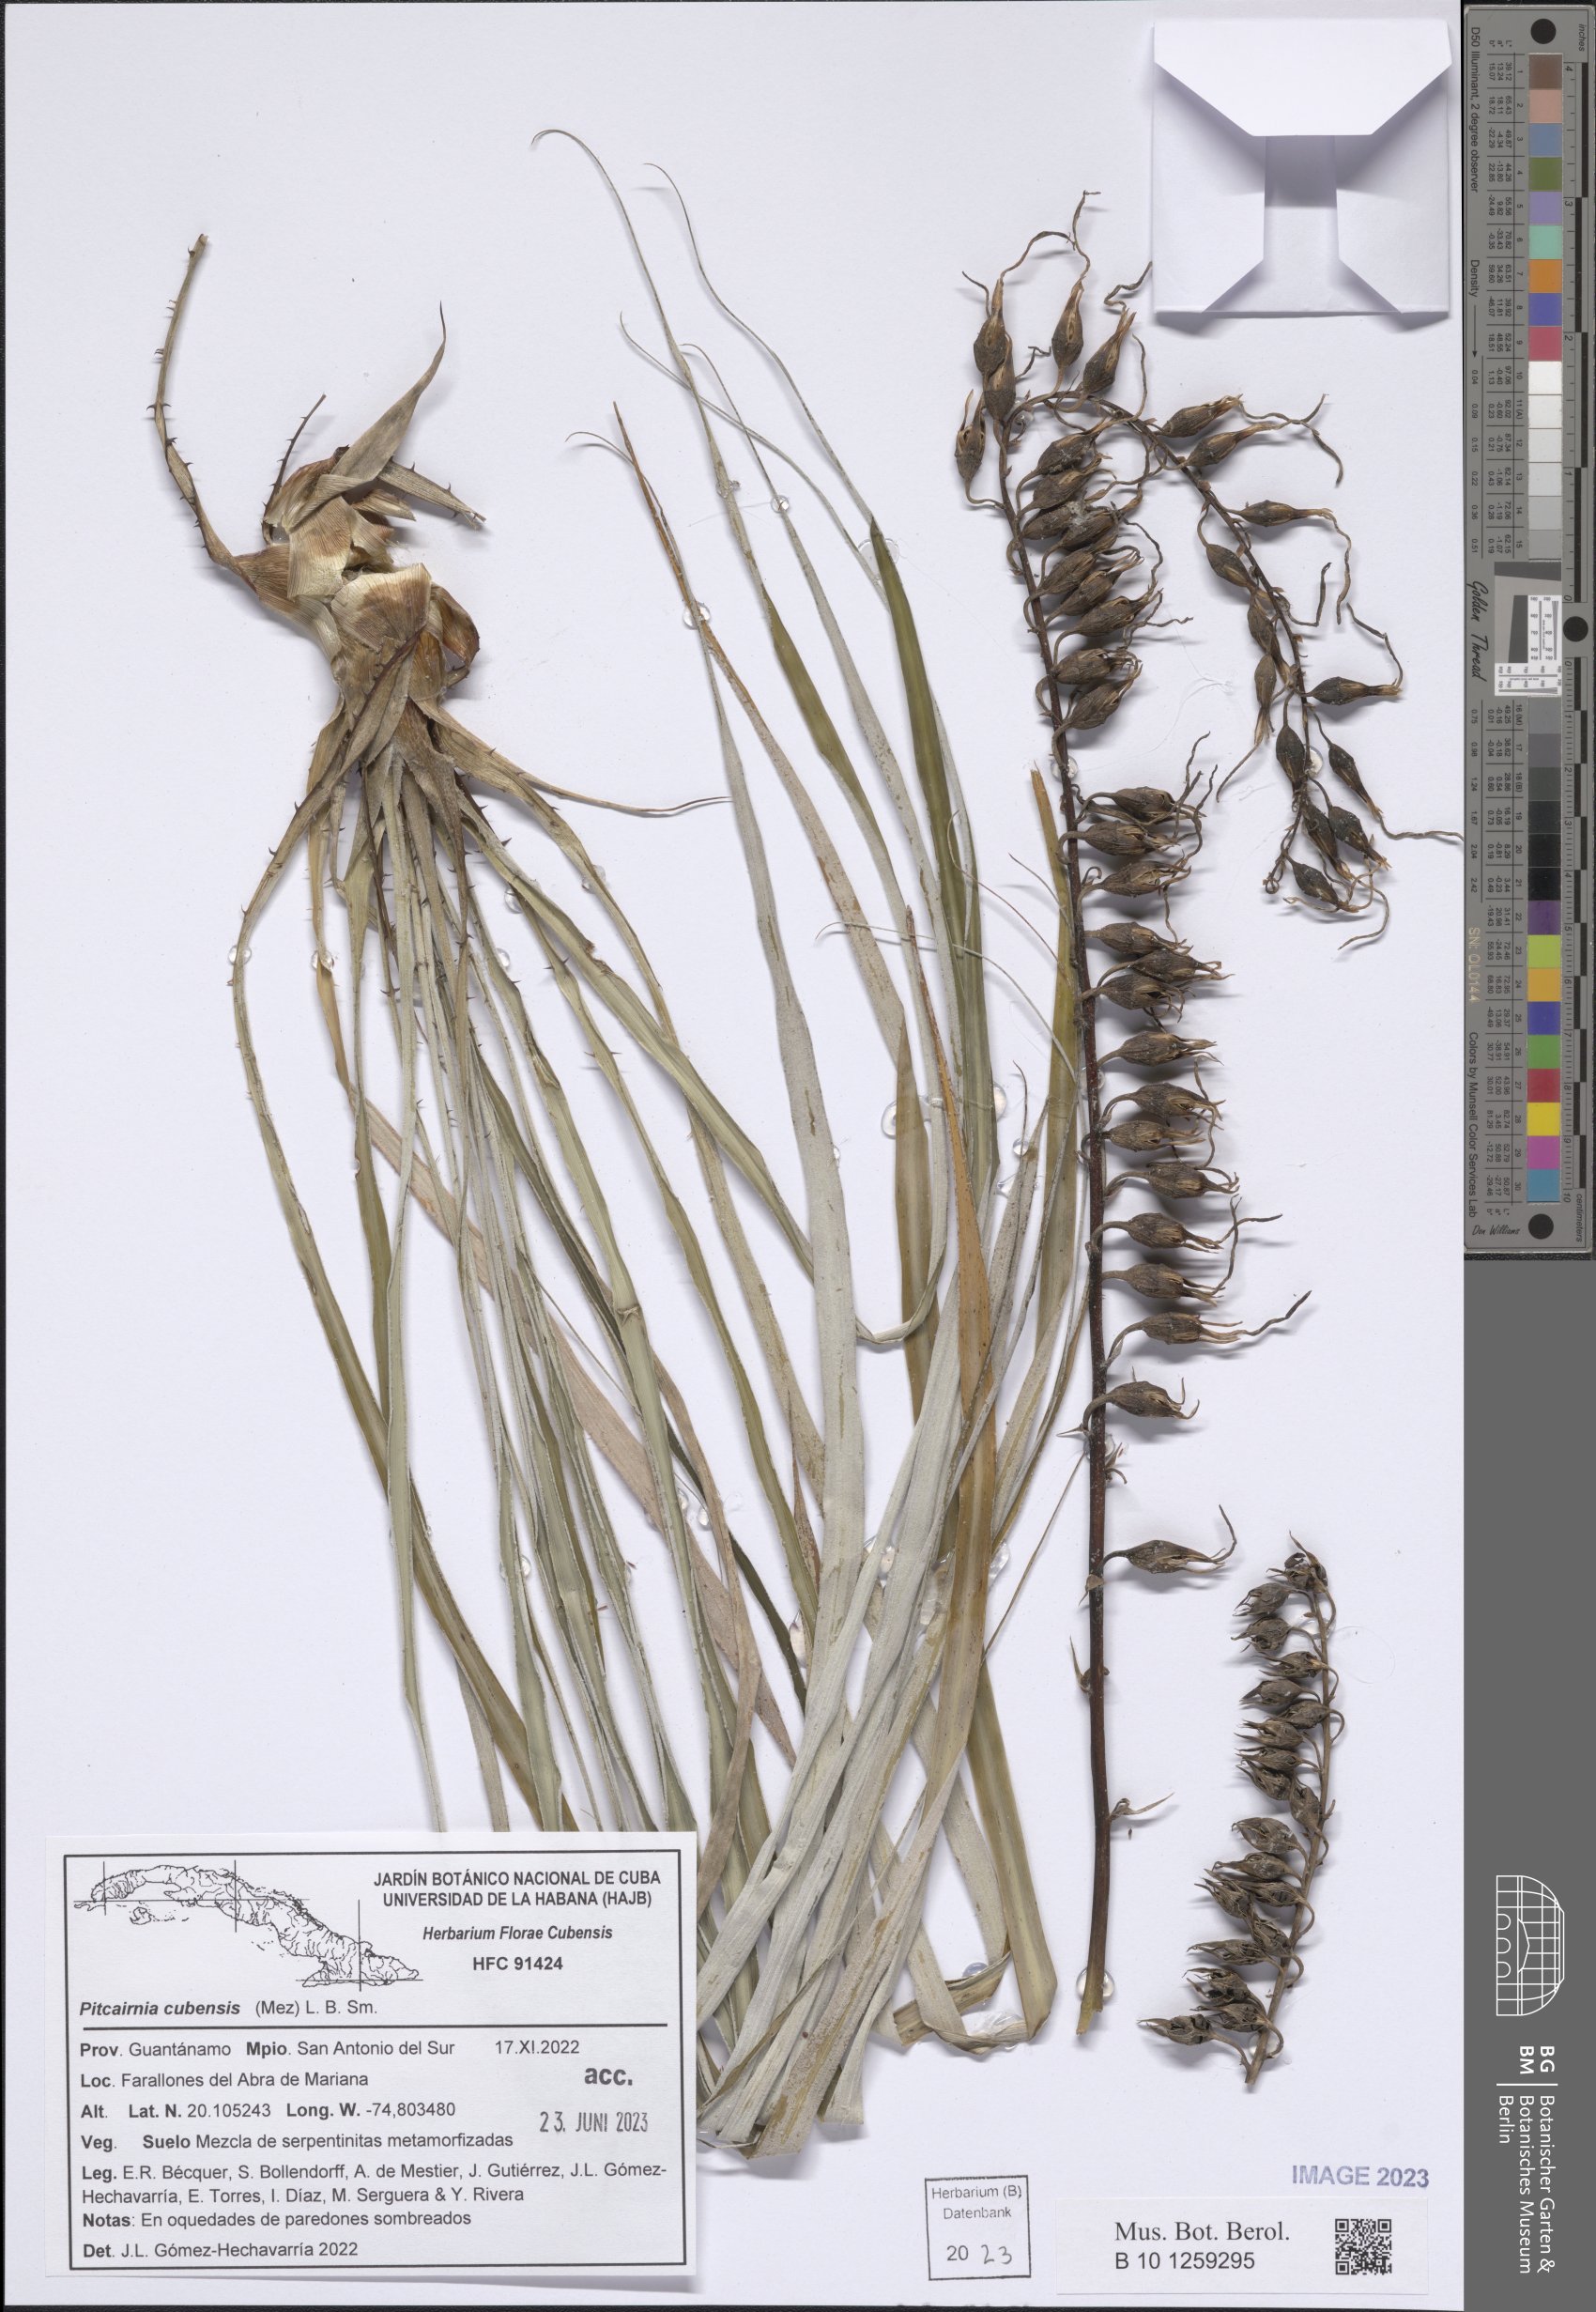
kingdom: Plantae
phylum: Tracheophyta
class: Liliopsida
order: Poales
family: Bromeliaceae
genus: Pitcairnia
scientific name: Pitcairnia cubensis
